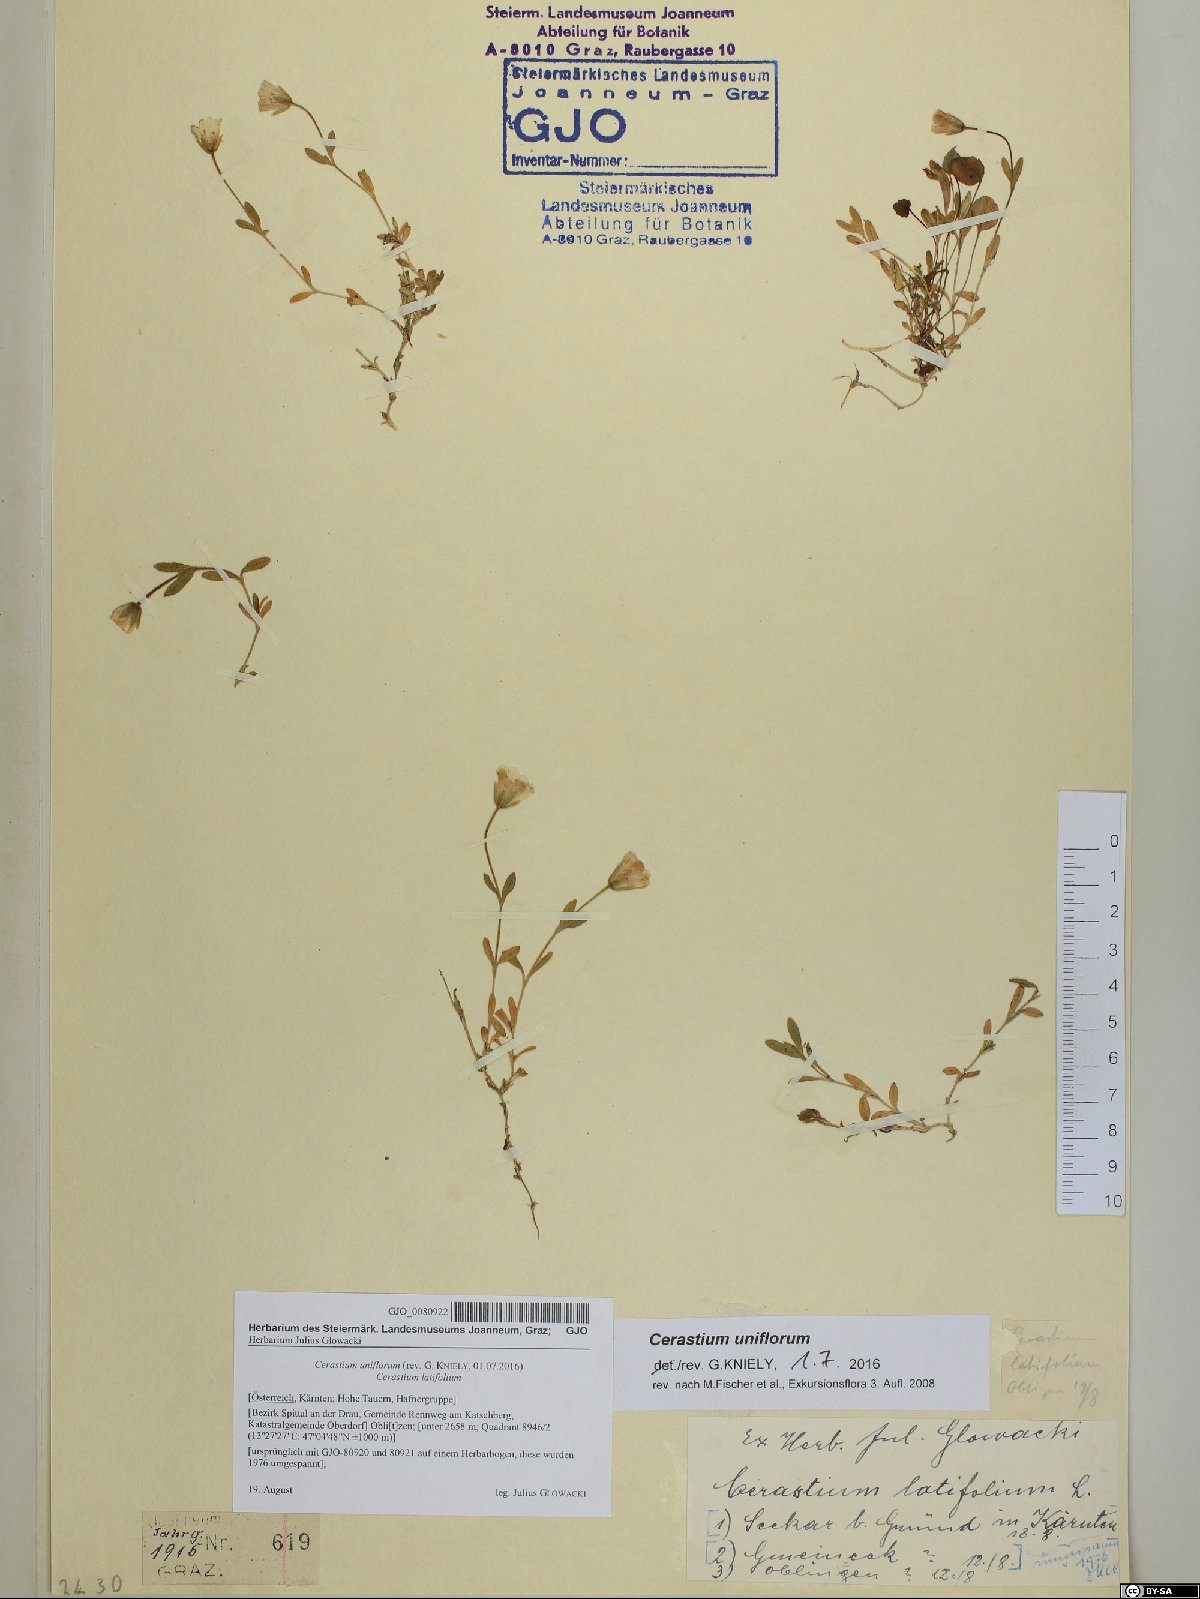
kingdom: Plantae
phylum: Tracheophyta
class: Magnoliopsida
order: Caryophyllales
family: Caryophyllaceae
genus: Cerastium
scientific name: Cerastium uniflorum
